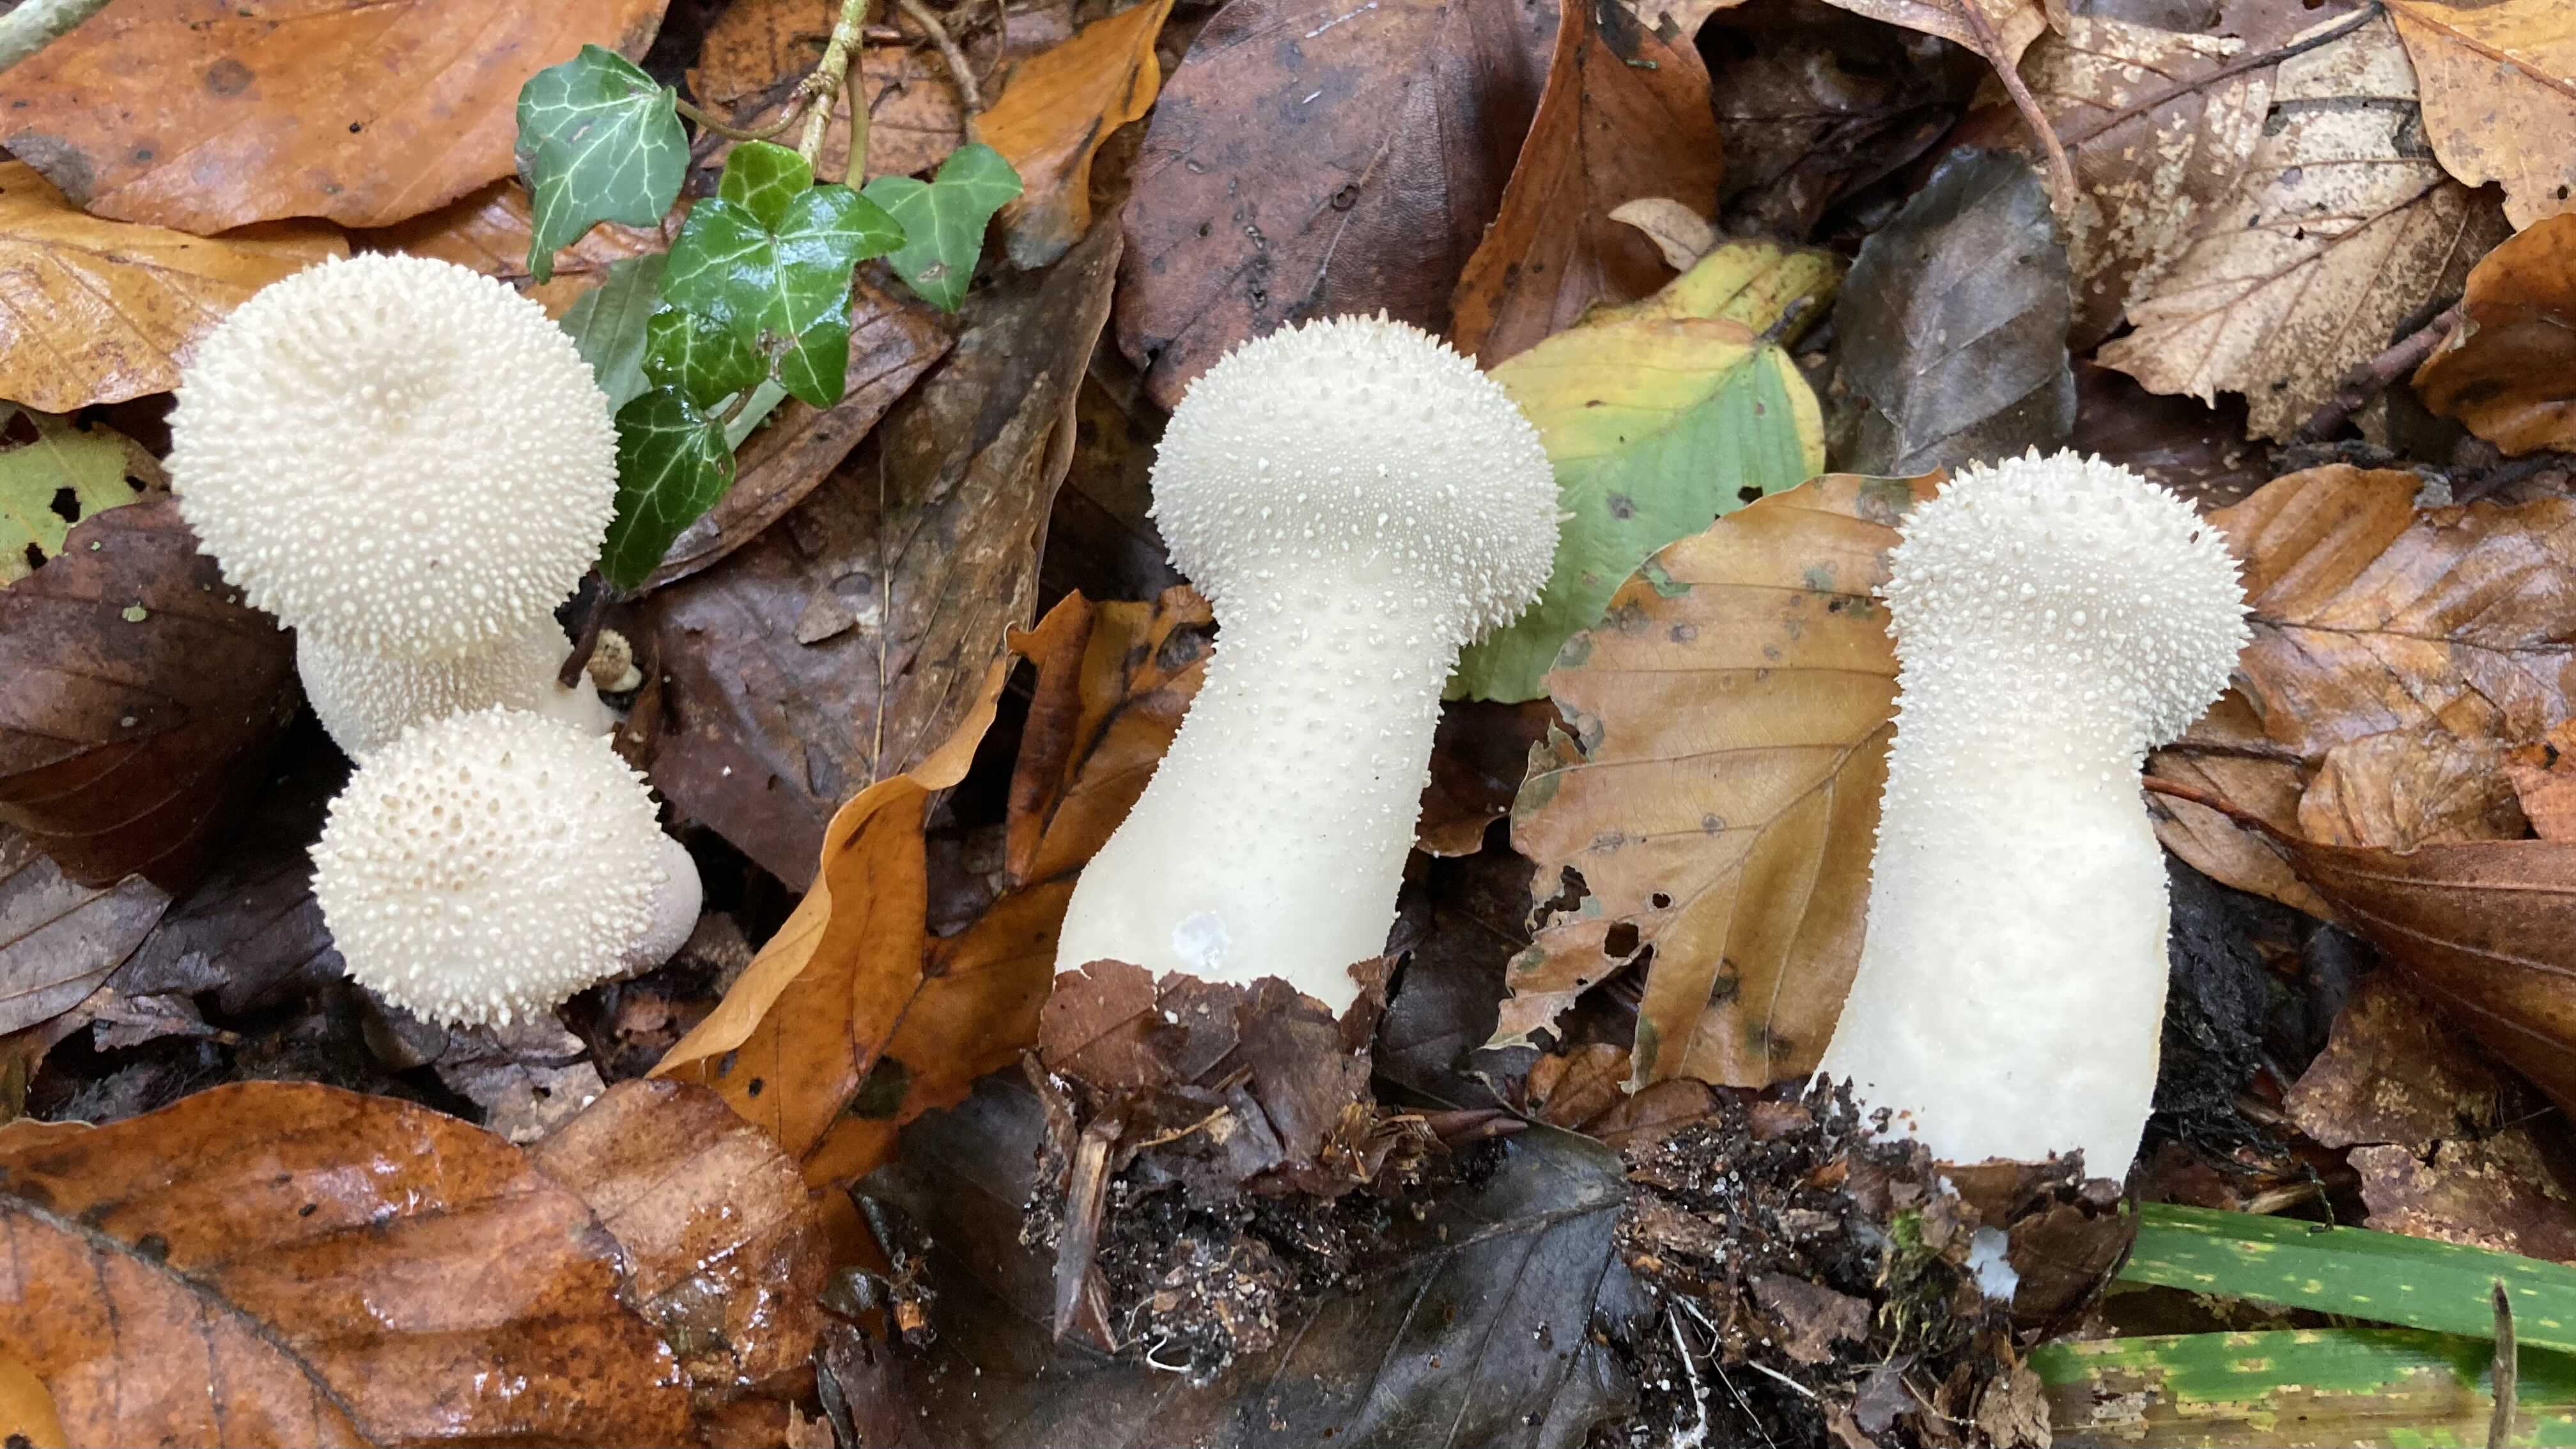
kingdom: Fungi
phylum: Basidiomycota
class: Agaricomycetes
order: Agaricales
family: Lycoperdaceae
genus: Lycoperdon
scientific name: Lycoperdon perlatum
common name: krystal-støvbold
